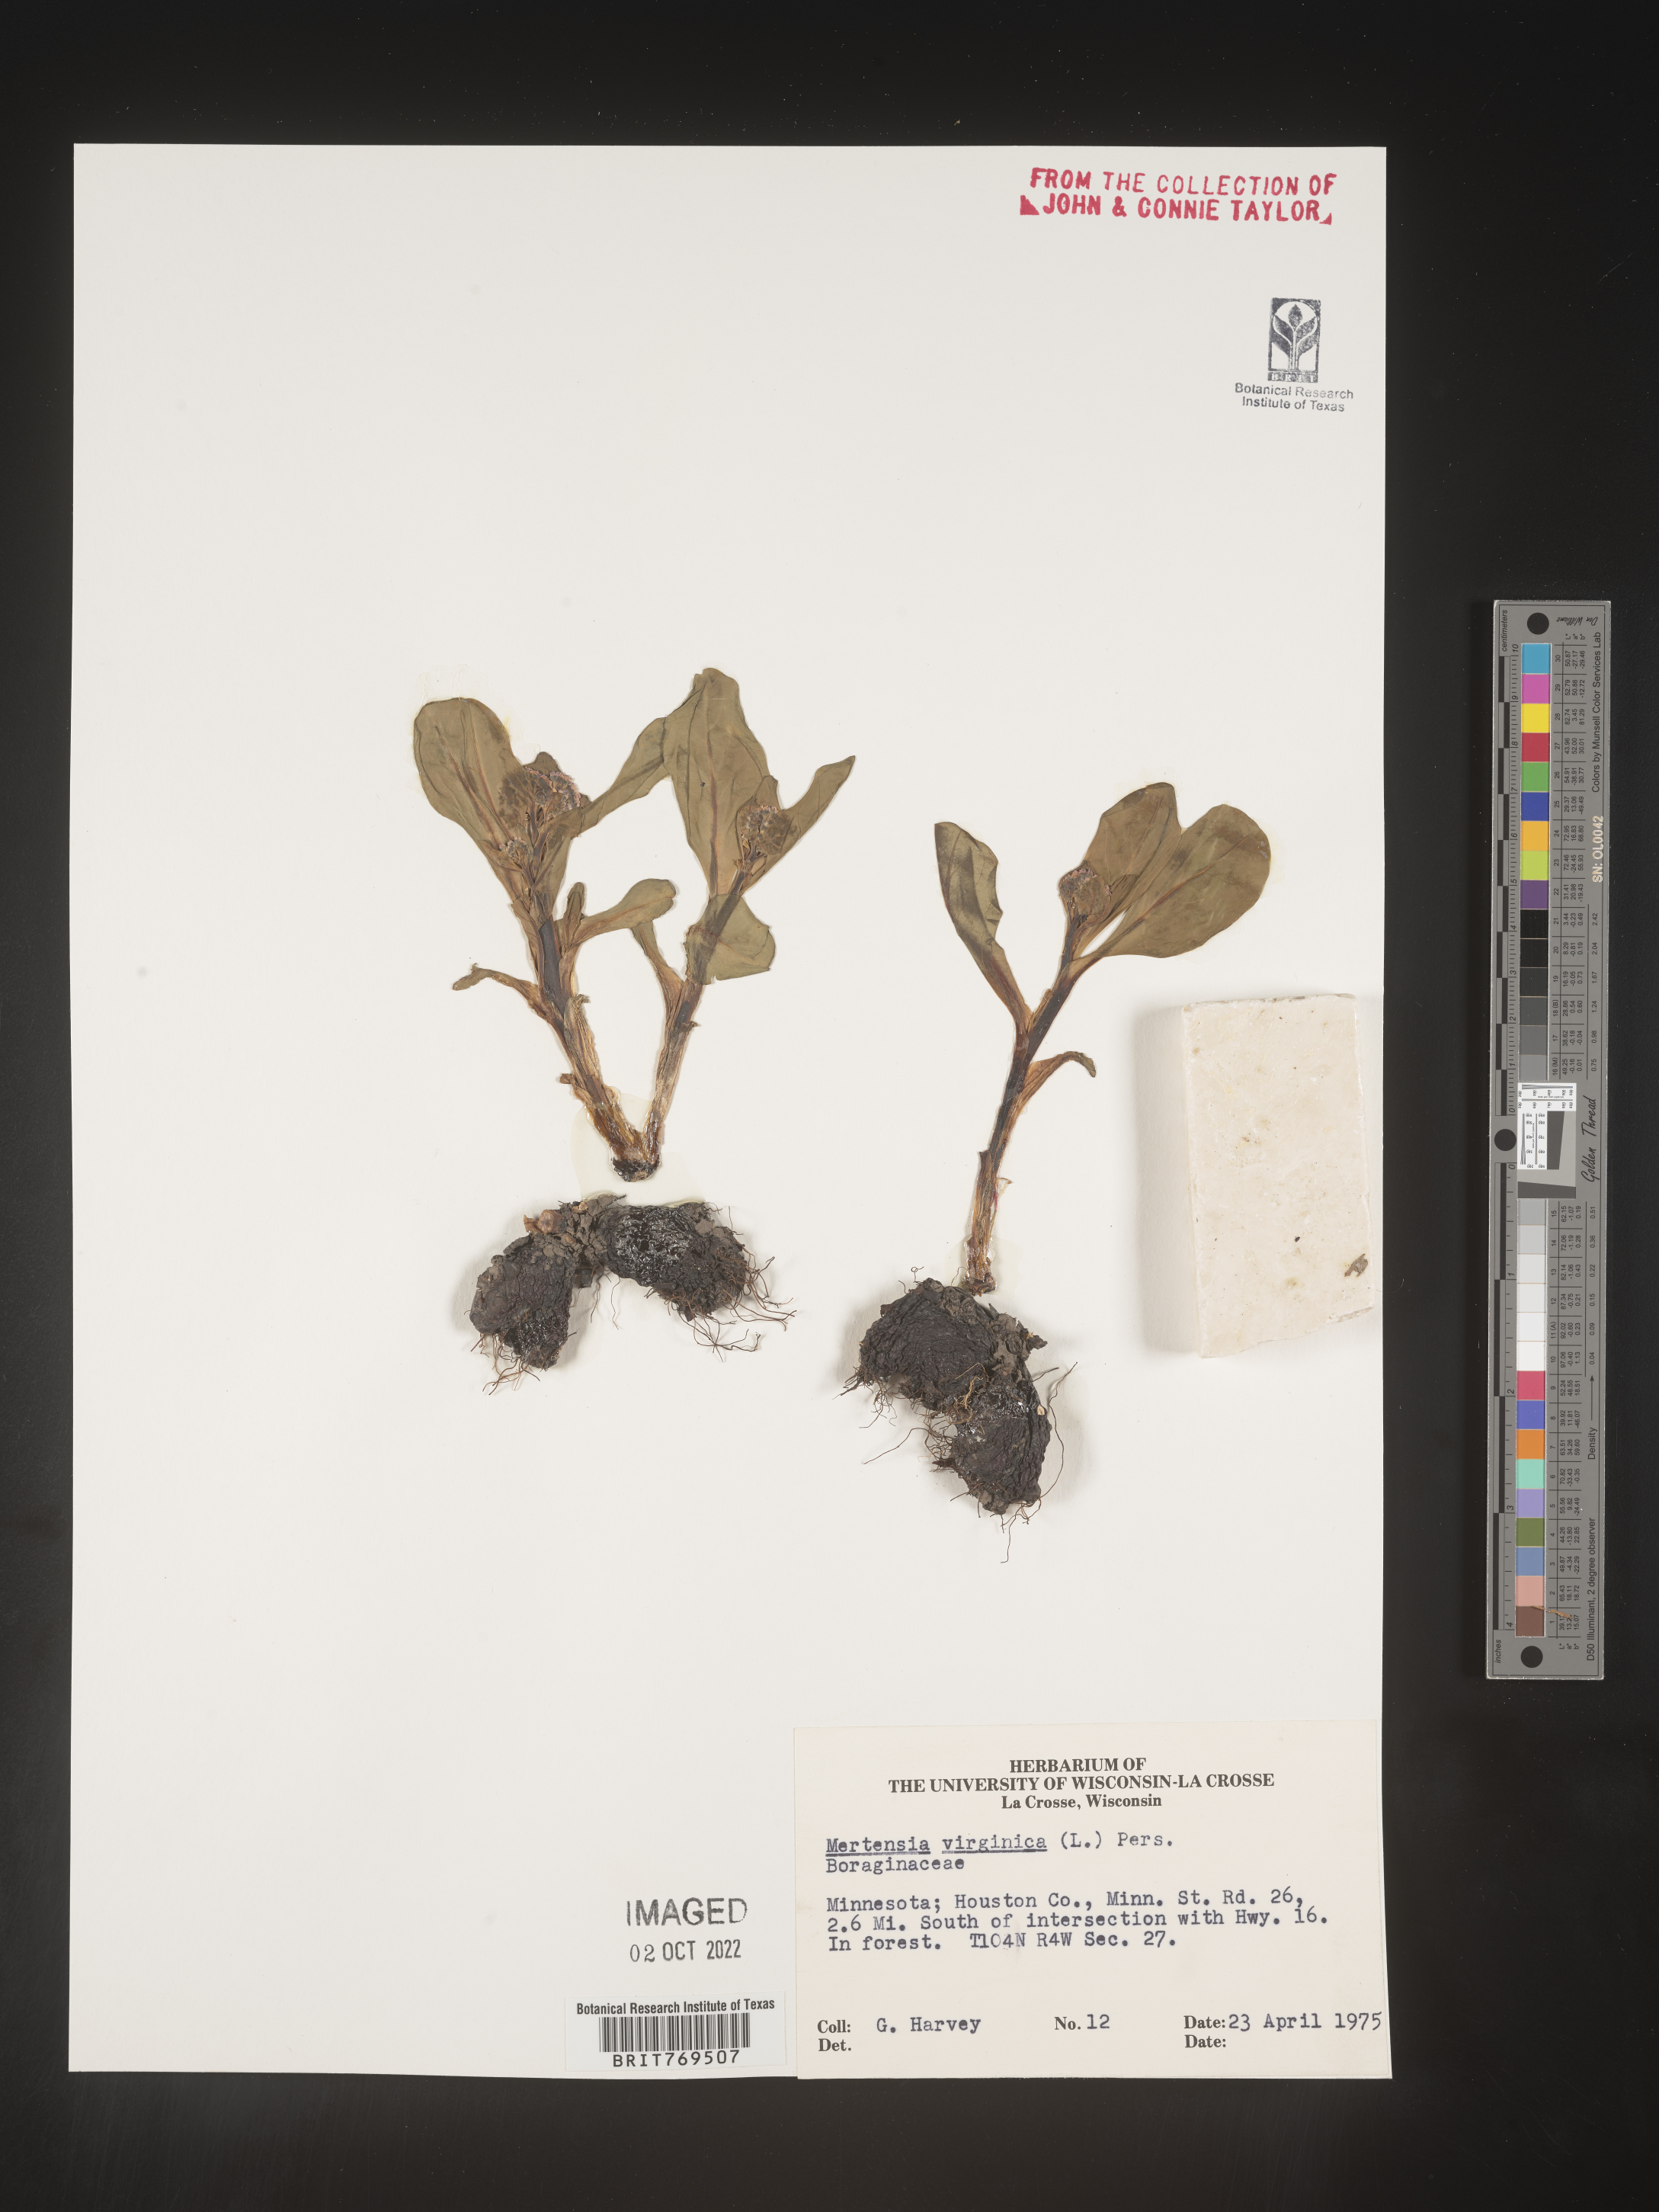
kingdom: Plantae
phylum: Tracheophyta
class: Magnoliopsida
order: Boraginales
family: Boraginaceae
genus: Mertensia
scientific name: Mertensia virginica
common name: Virginia bluebells
